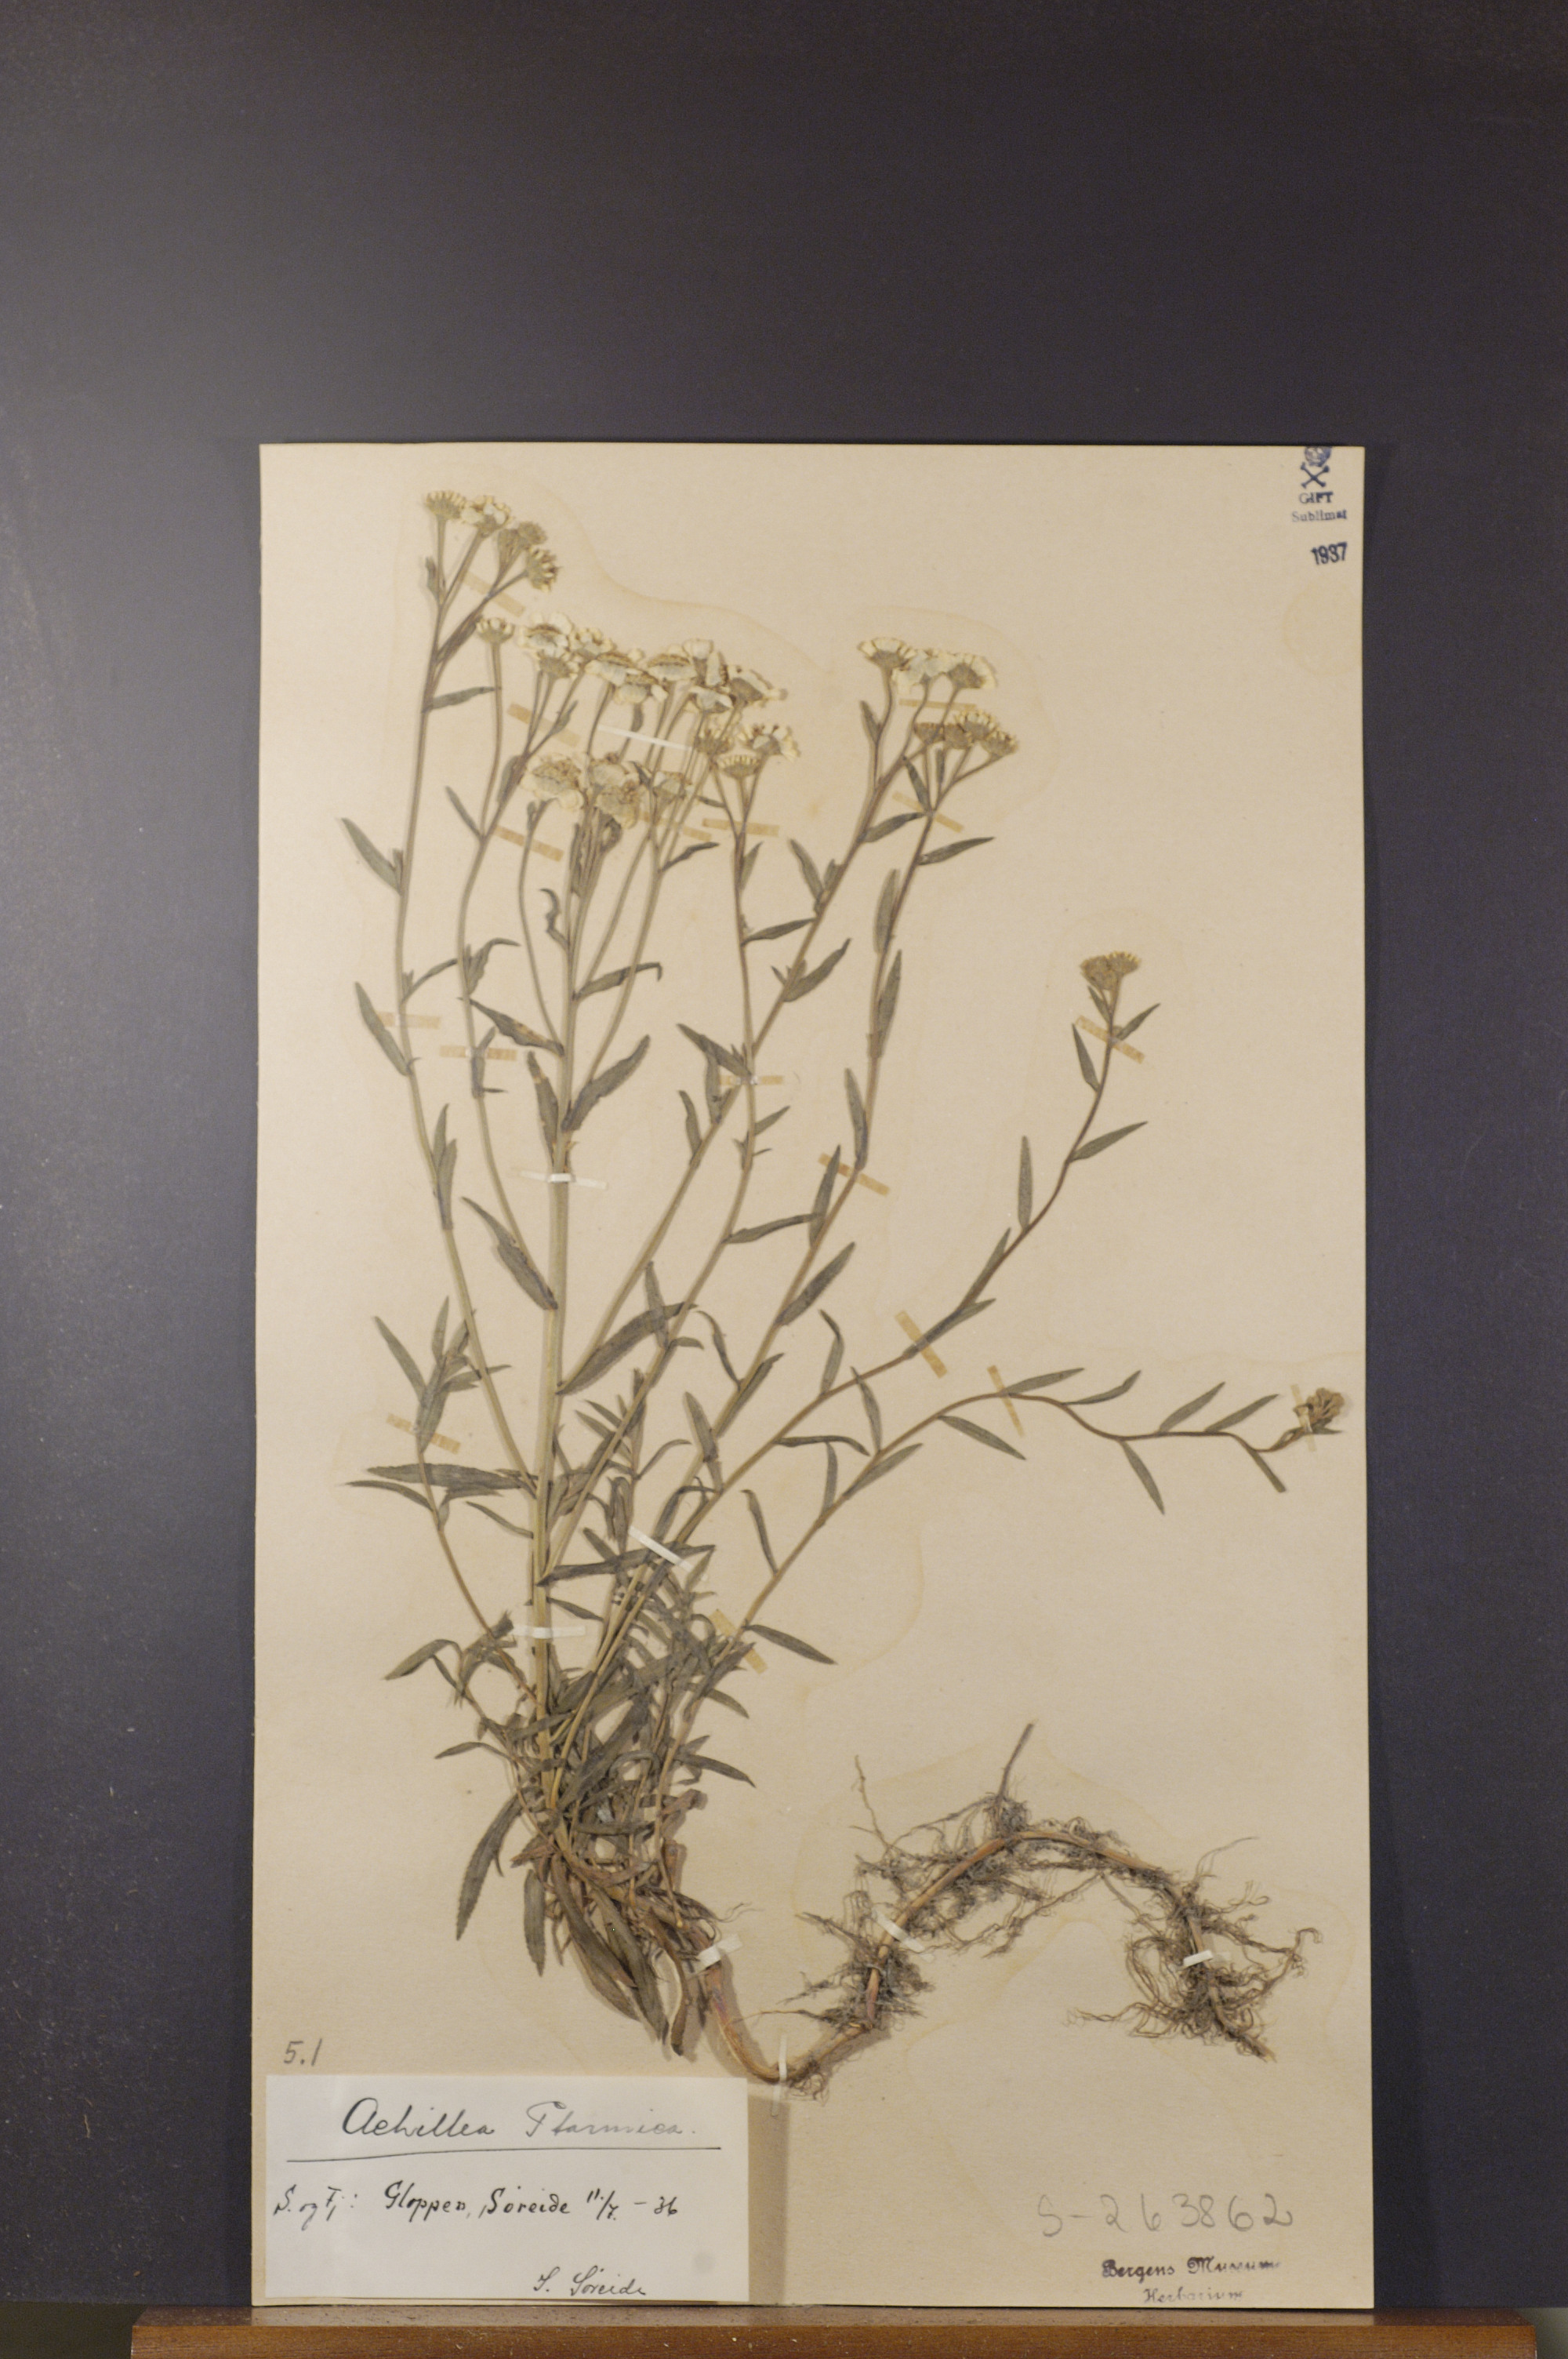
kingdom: Plantae
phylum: Tracheophyta
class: Magnoliopsida
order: Asterales
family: Asteraceae
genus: Achillea
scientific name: Achillea ptarmica
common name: Sneezeweed
